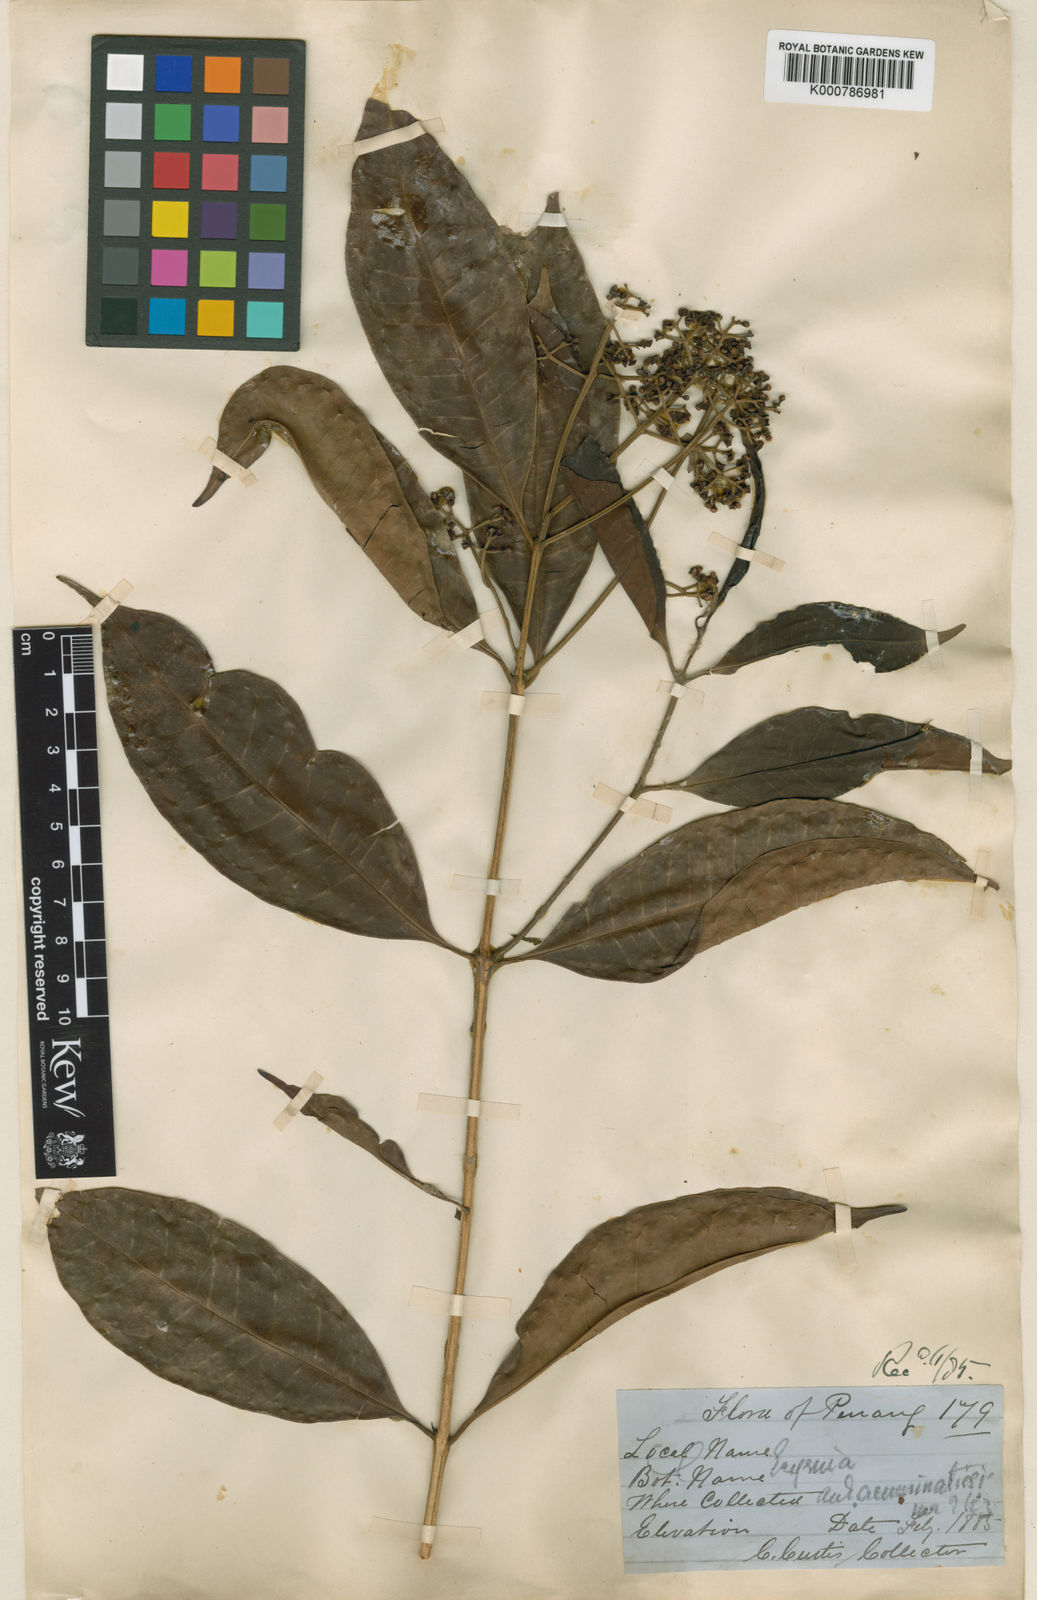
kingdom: Plantae
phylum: Tracheophyta
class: Magnoliopsida
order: Myrtales
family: Myrtaceae
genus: Syzygium
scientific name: Syzygium kunstleri
